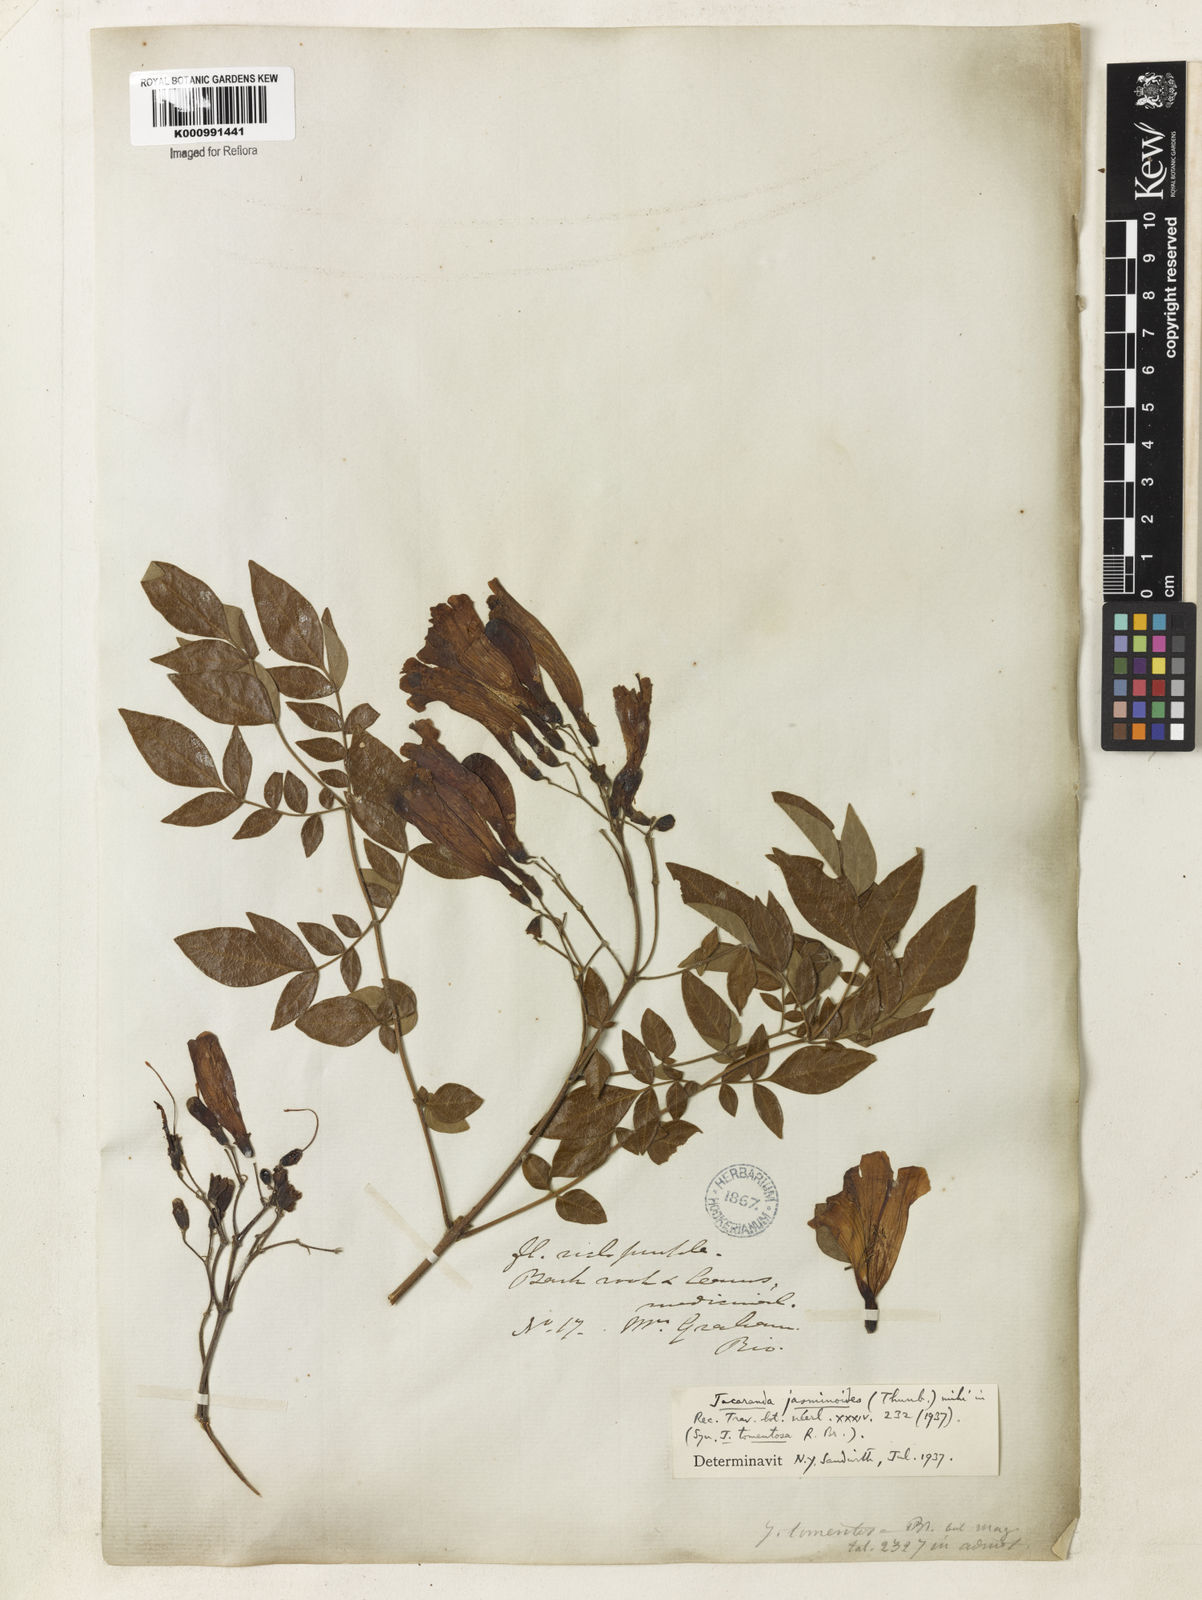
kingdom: Plantae
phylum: Tracheophyta
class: Magnoliopsida
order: Lamiales
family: Bignoniaceae
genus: Jacaranda
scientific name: Jacaranda jasminoides
